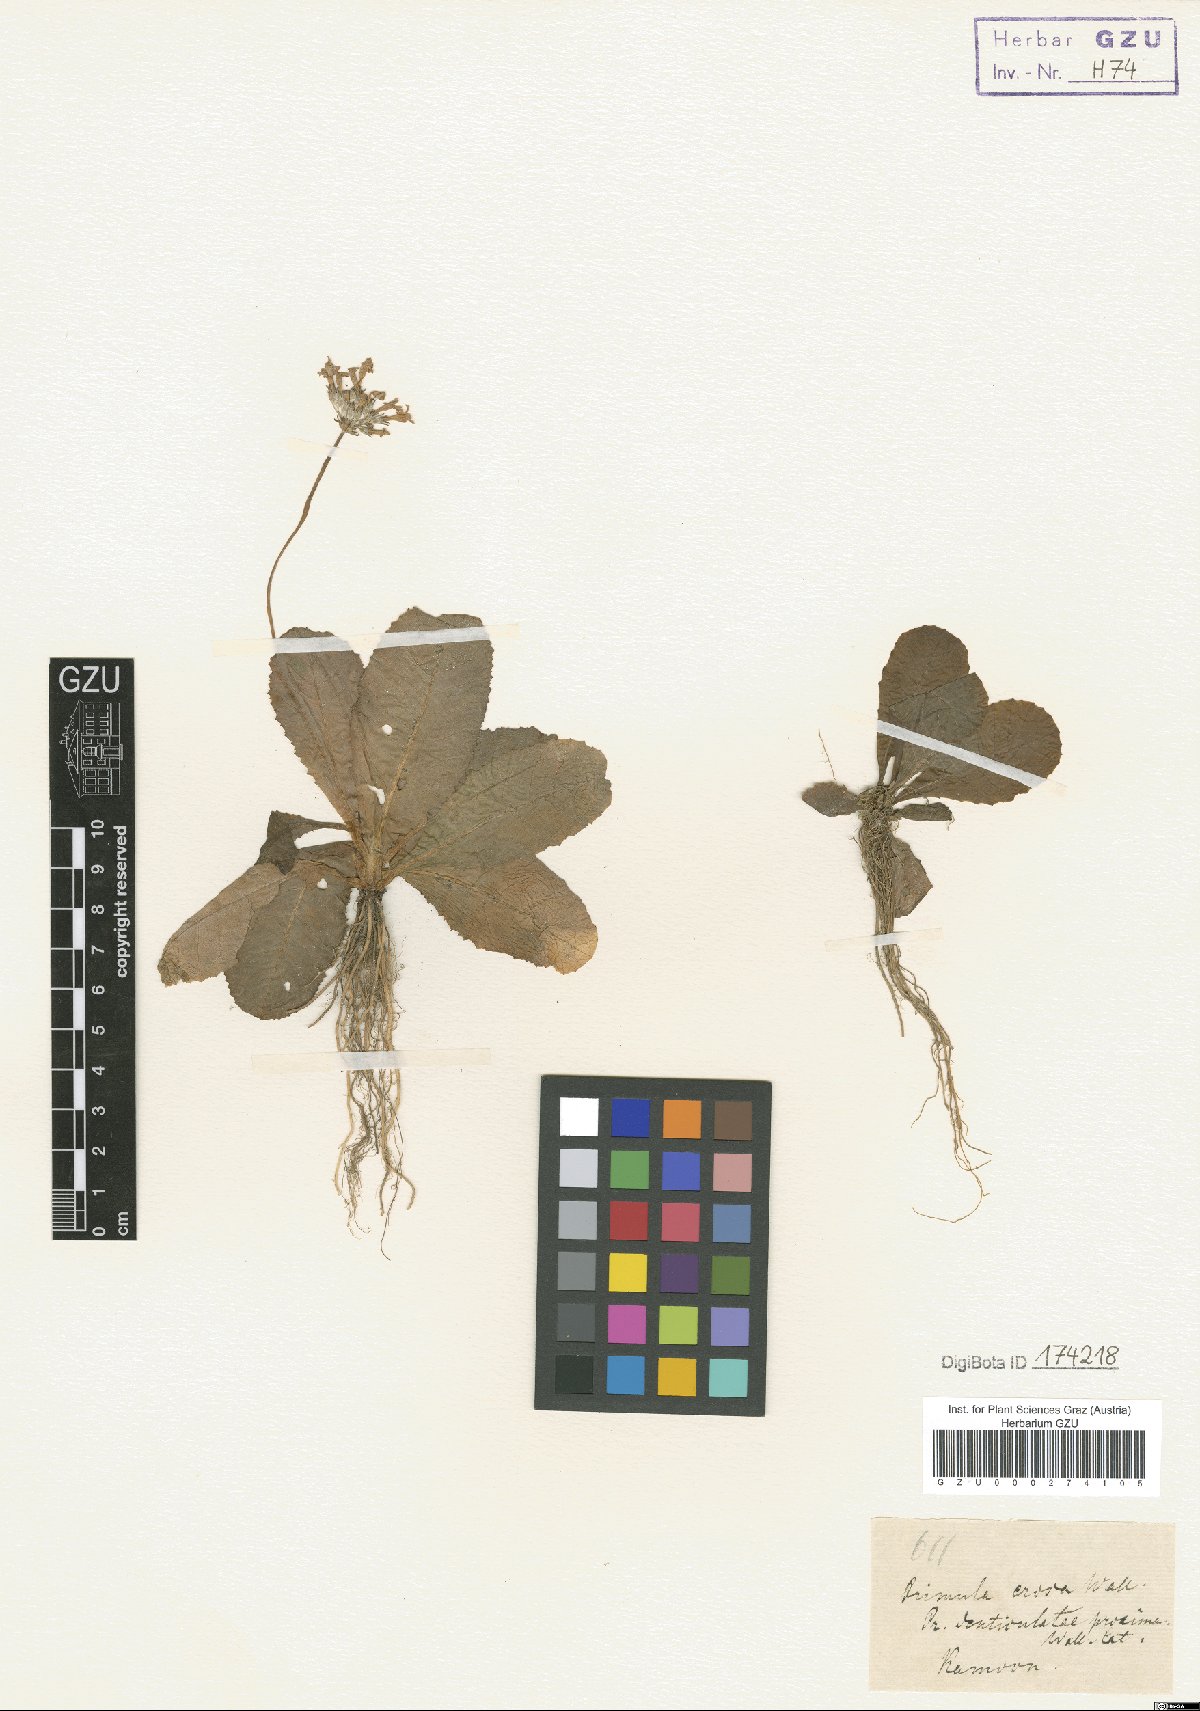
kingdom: Plantae
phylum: Tracheophyta
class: Magnoliopsida
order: Ericales
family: Primulaceae
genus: Primula
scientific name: Primula erosa
